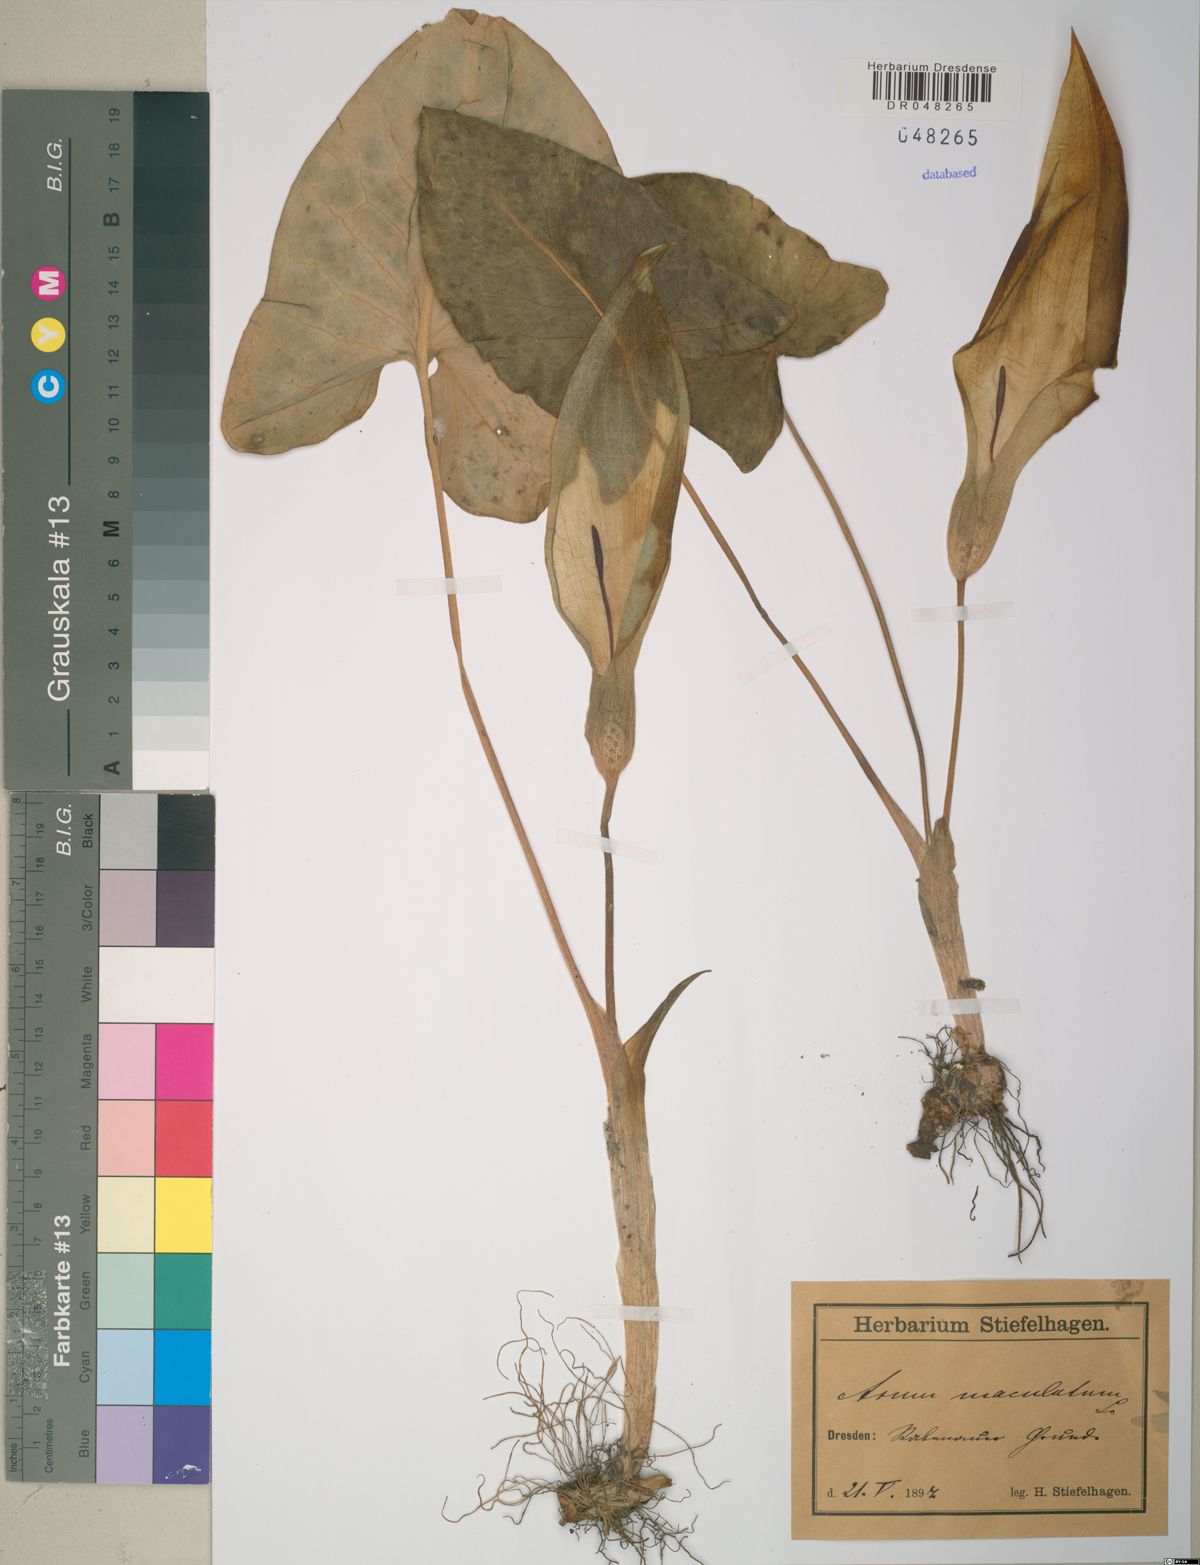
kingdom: Plantae
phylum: Tracheophyta
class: Liliopsida
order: Alismatales
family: Araceae
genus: Arum
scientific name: Arum maculatum
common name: Lords-and-ladies
